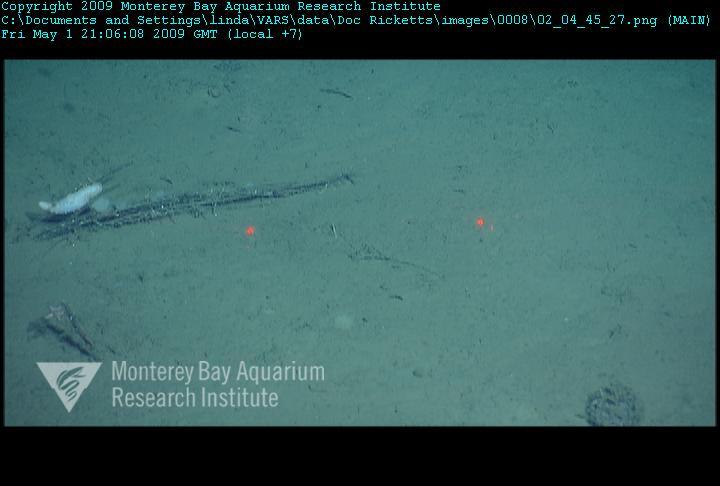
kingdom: Animalia
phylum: Porifera
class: Hexactinellida
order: Lyssacinosida
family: Rossellidae
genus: Bathydorus
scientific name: Bathydorus spinosus
